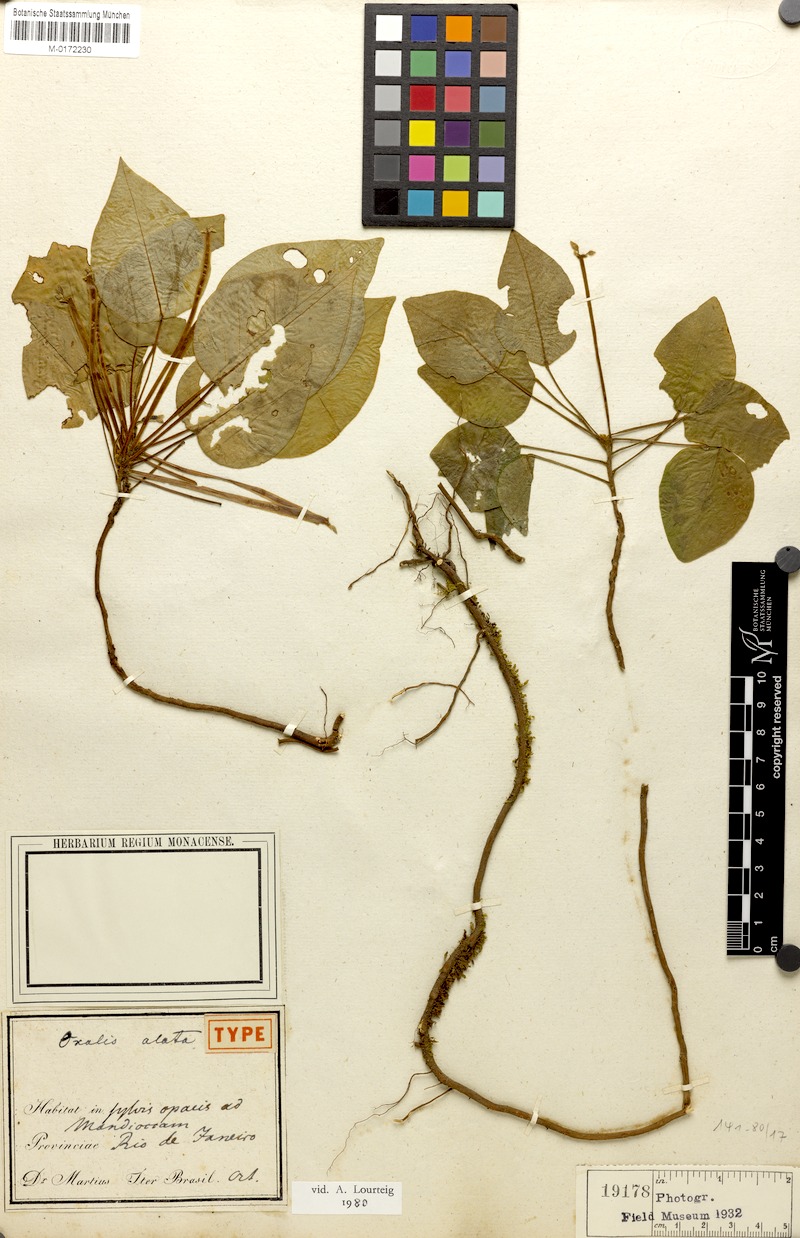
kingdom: Plantae
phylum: Tracheophyta
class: Magnoliopsida
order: Oxalidales
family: Oxalidaceae
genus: Oxalis
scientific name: Oxalis alata
